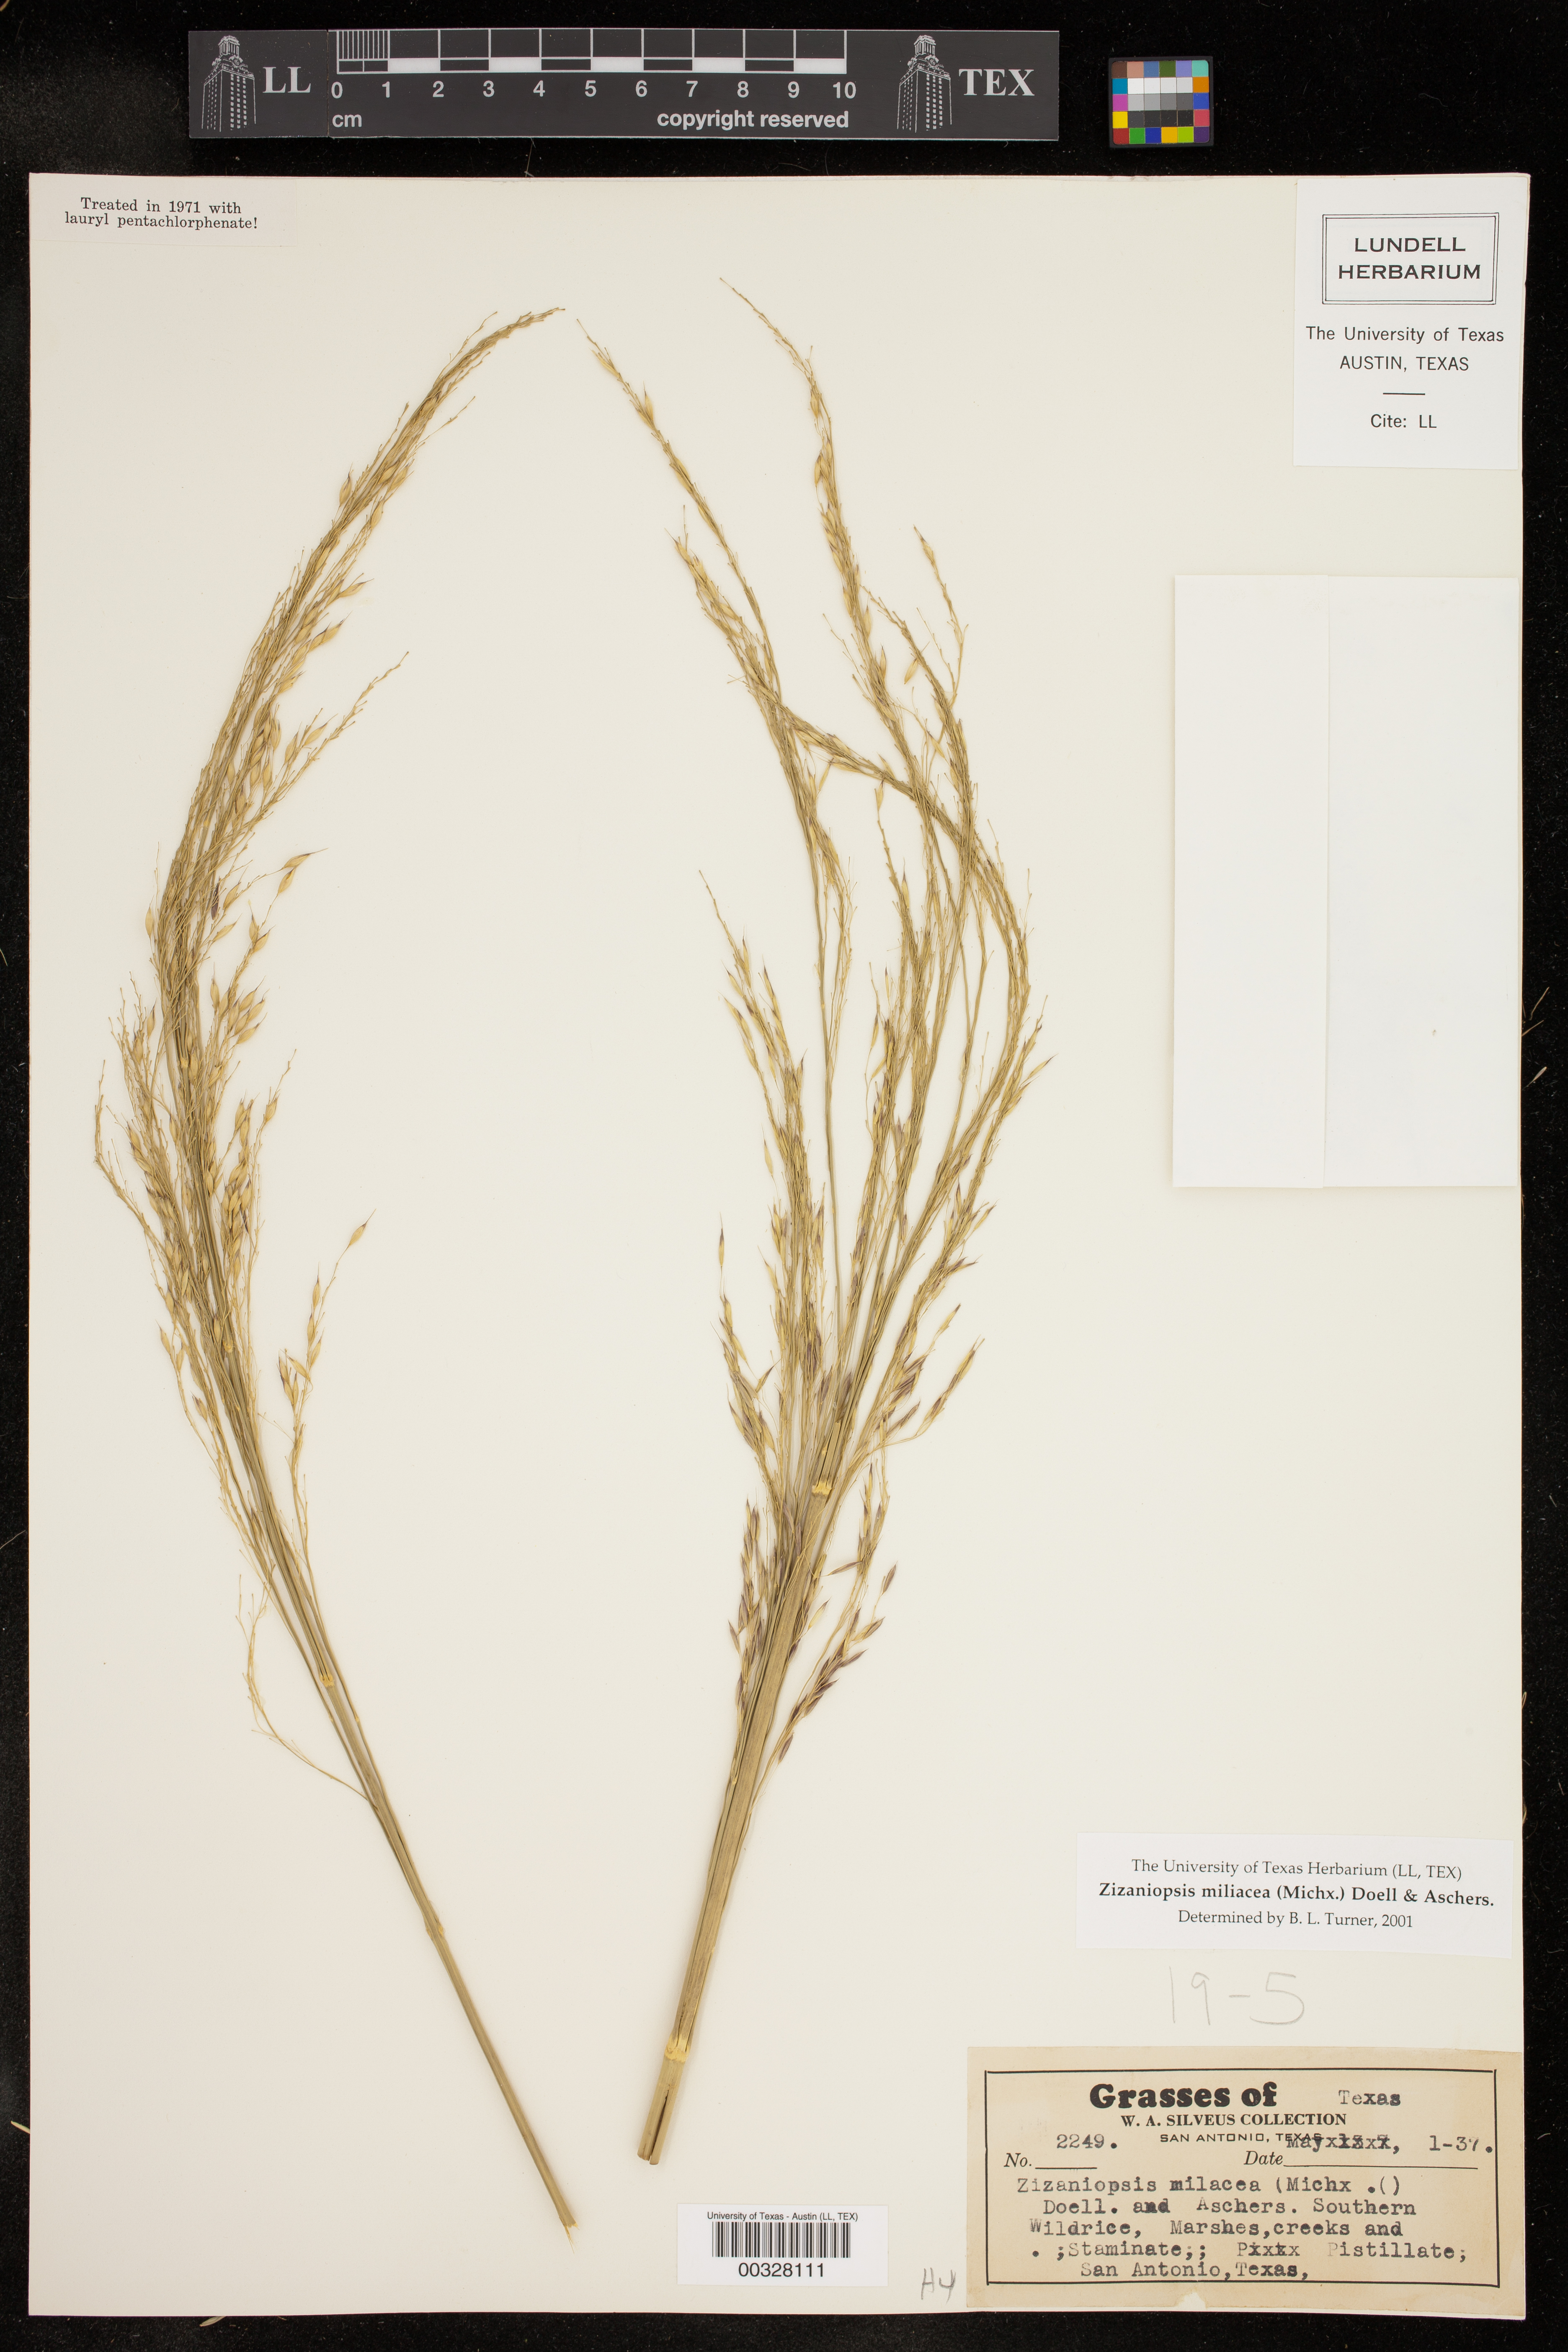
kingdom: Plantae
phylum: Tracheophyta
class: Liliopsida
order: Poales
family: Poaceae
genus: Zizaniopsis
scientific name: Zizaniopsis miliacea
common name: Giant-cutgrass
